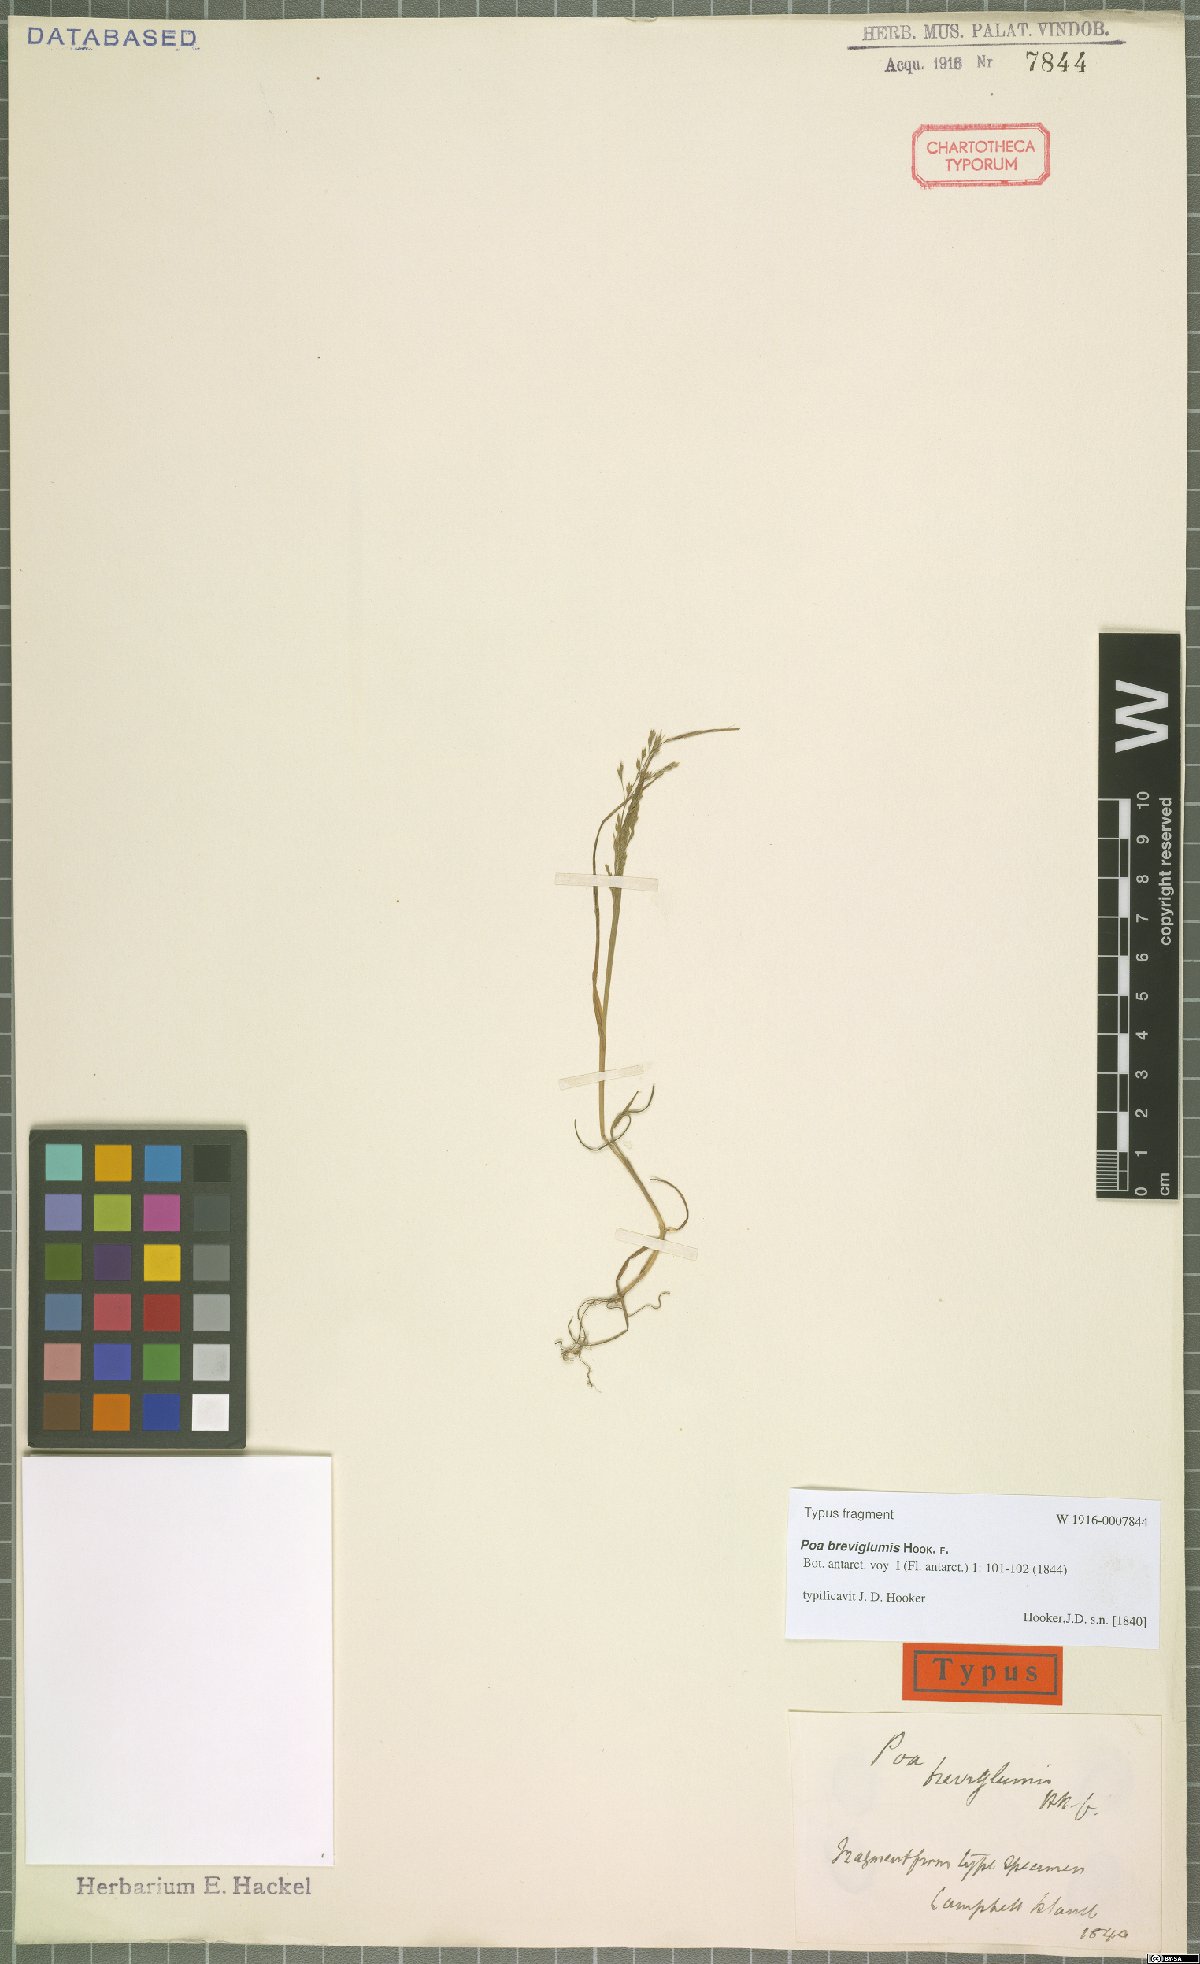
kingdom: Plantae
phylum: Tracheophyta
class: Liliopsida
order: Poales
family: Poaceae
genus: Poa
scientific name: Poa breviglumis
